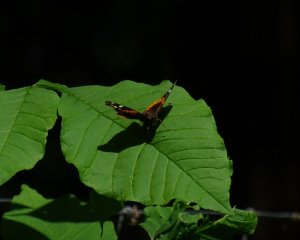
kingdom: Animalia
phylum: Arthropoda
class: Insecta
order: Lepidoptera
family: Nymphalidae
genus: Vanessa
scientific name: Vanessa atalanta
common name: Red Admiral
